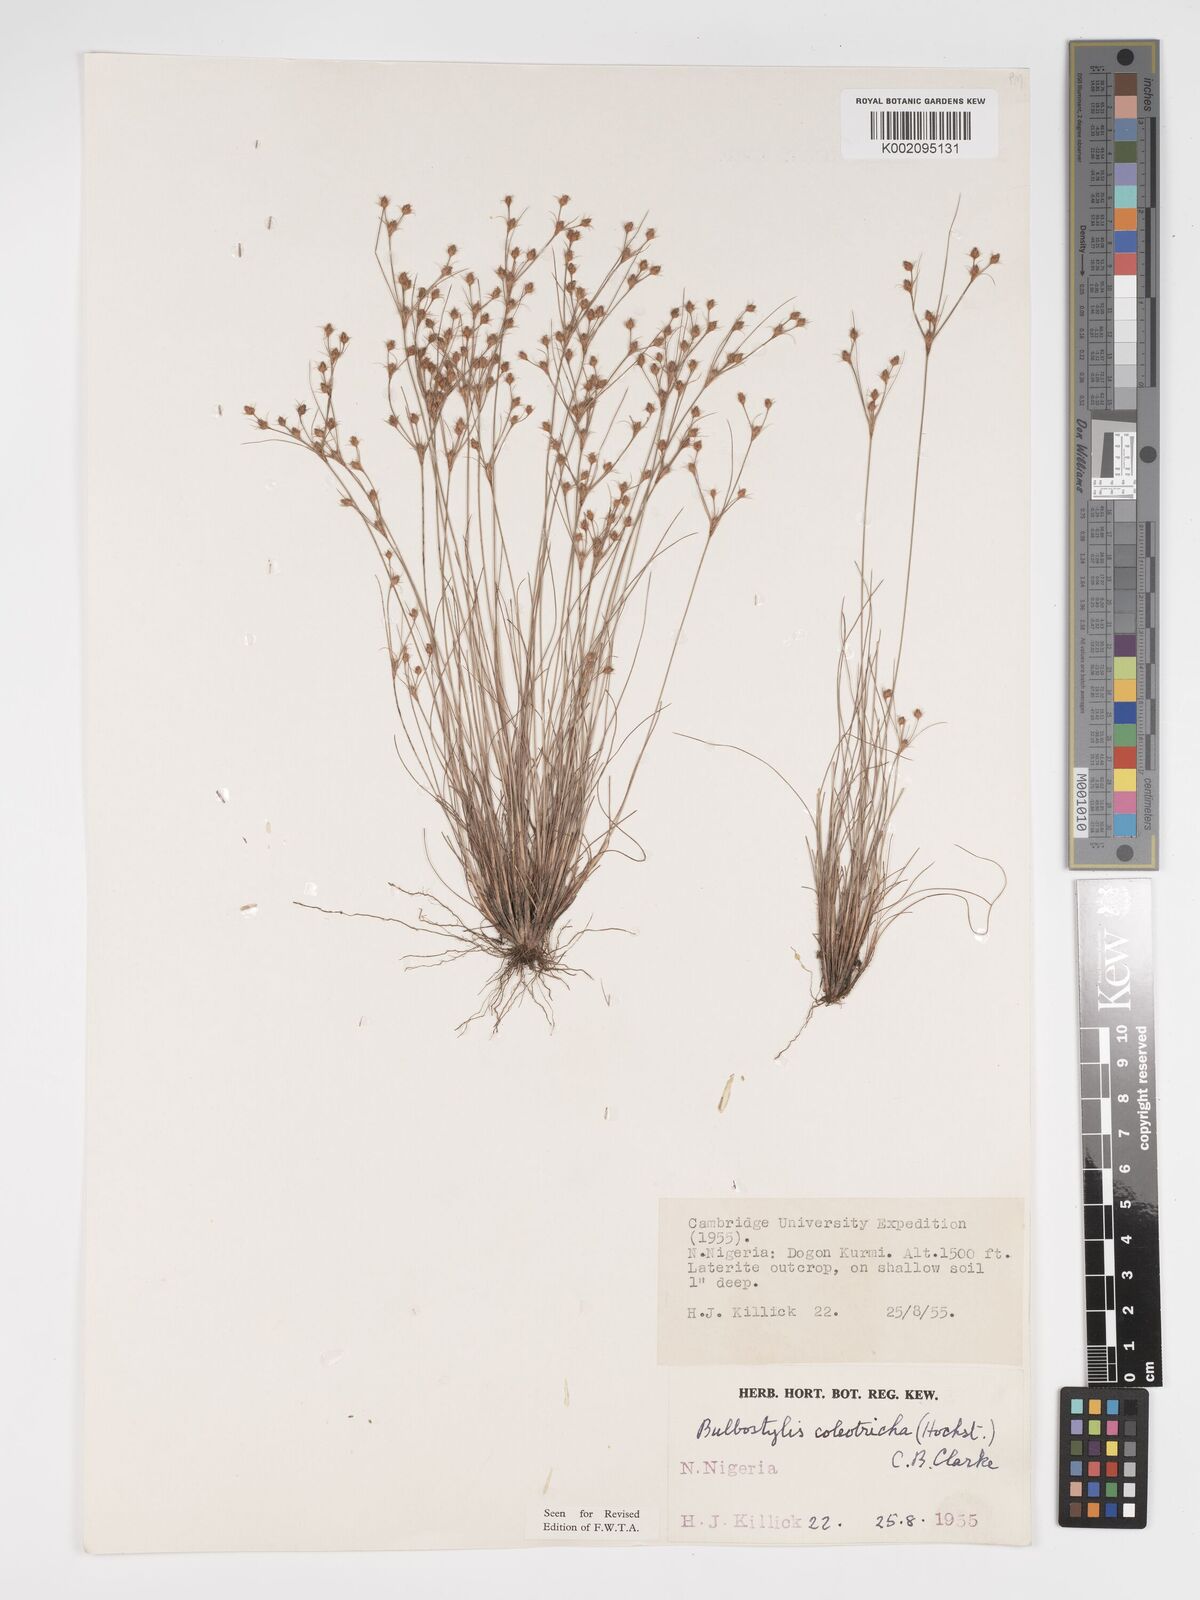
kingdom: Plantae
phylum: Tracheophyta
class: Liliopsida
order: Poales
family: Cyperaceae
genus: Bulbostylis
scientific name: Bulbostylis coleotricha
